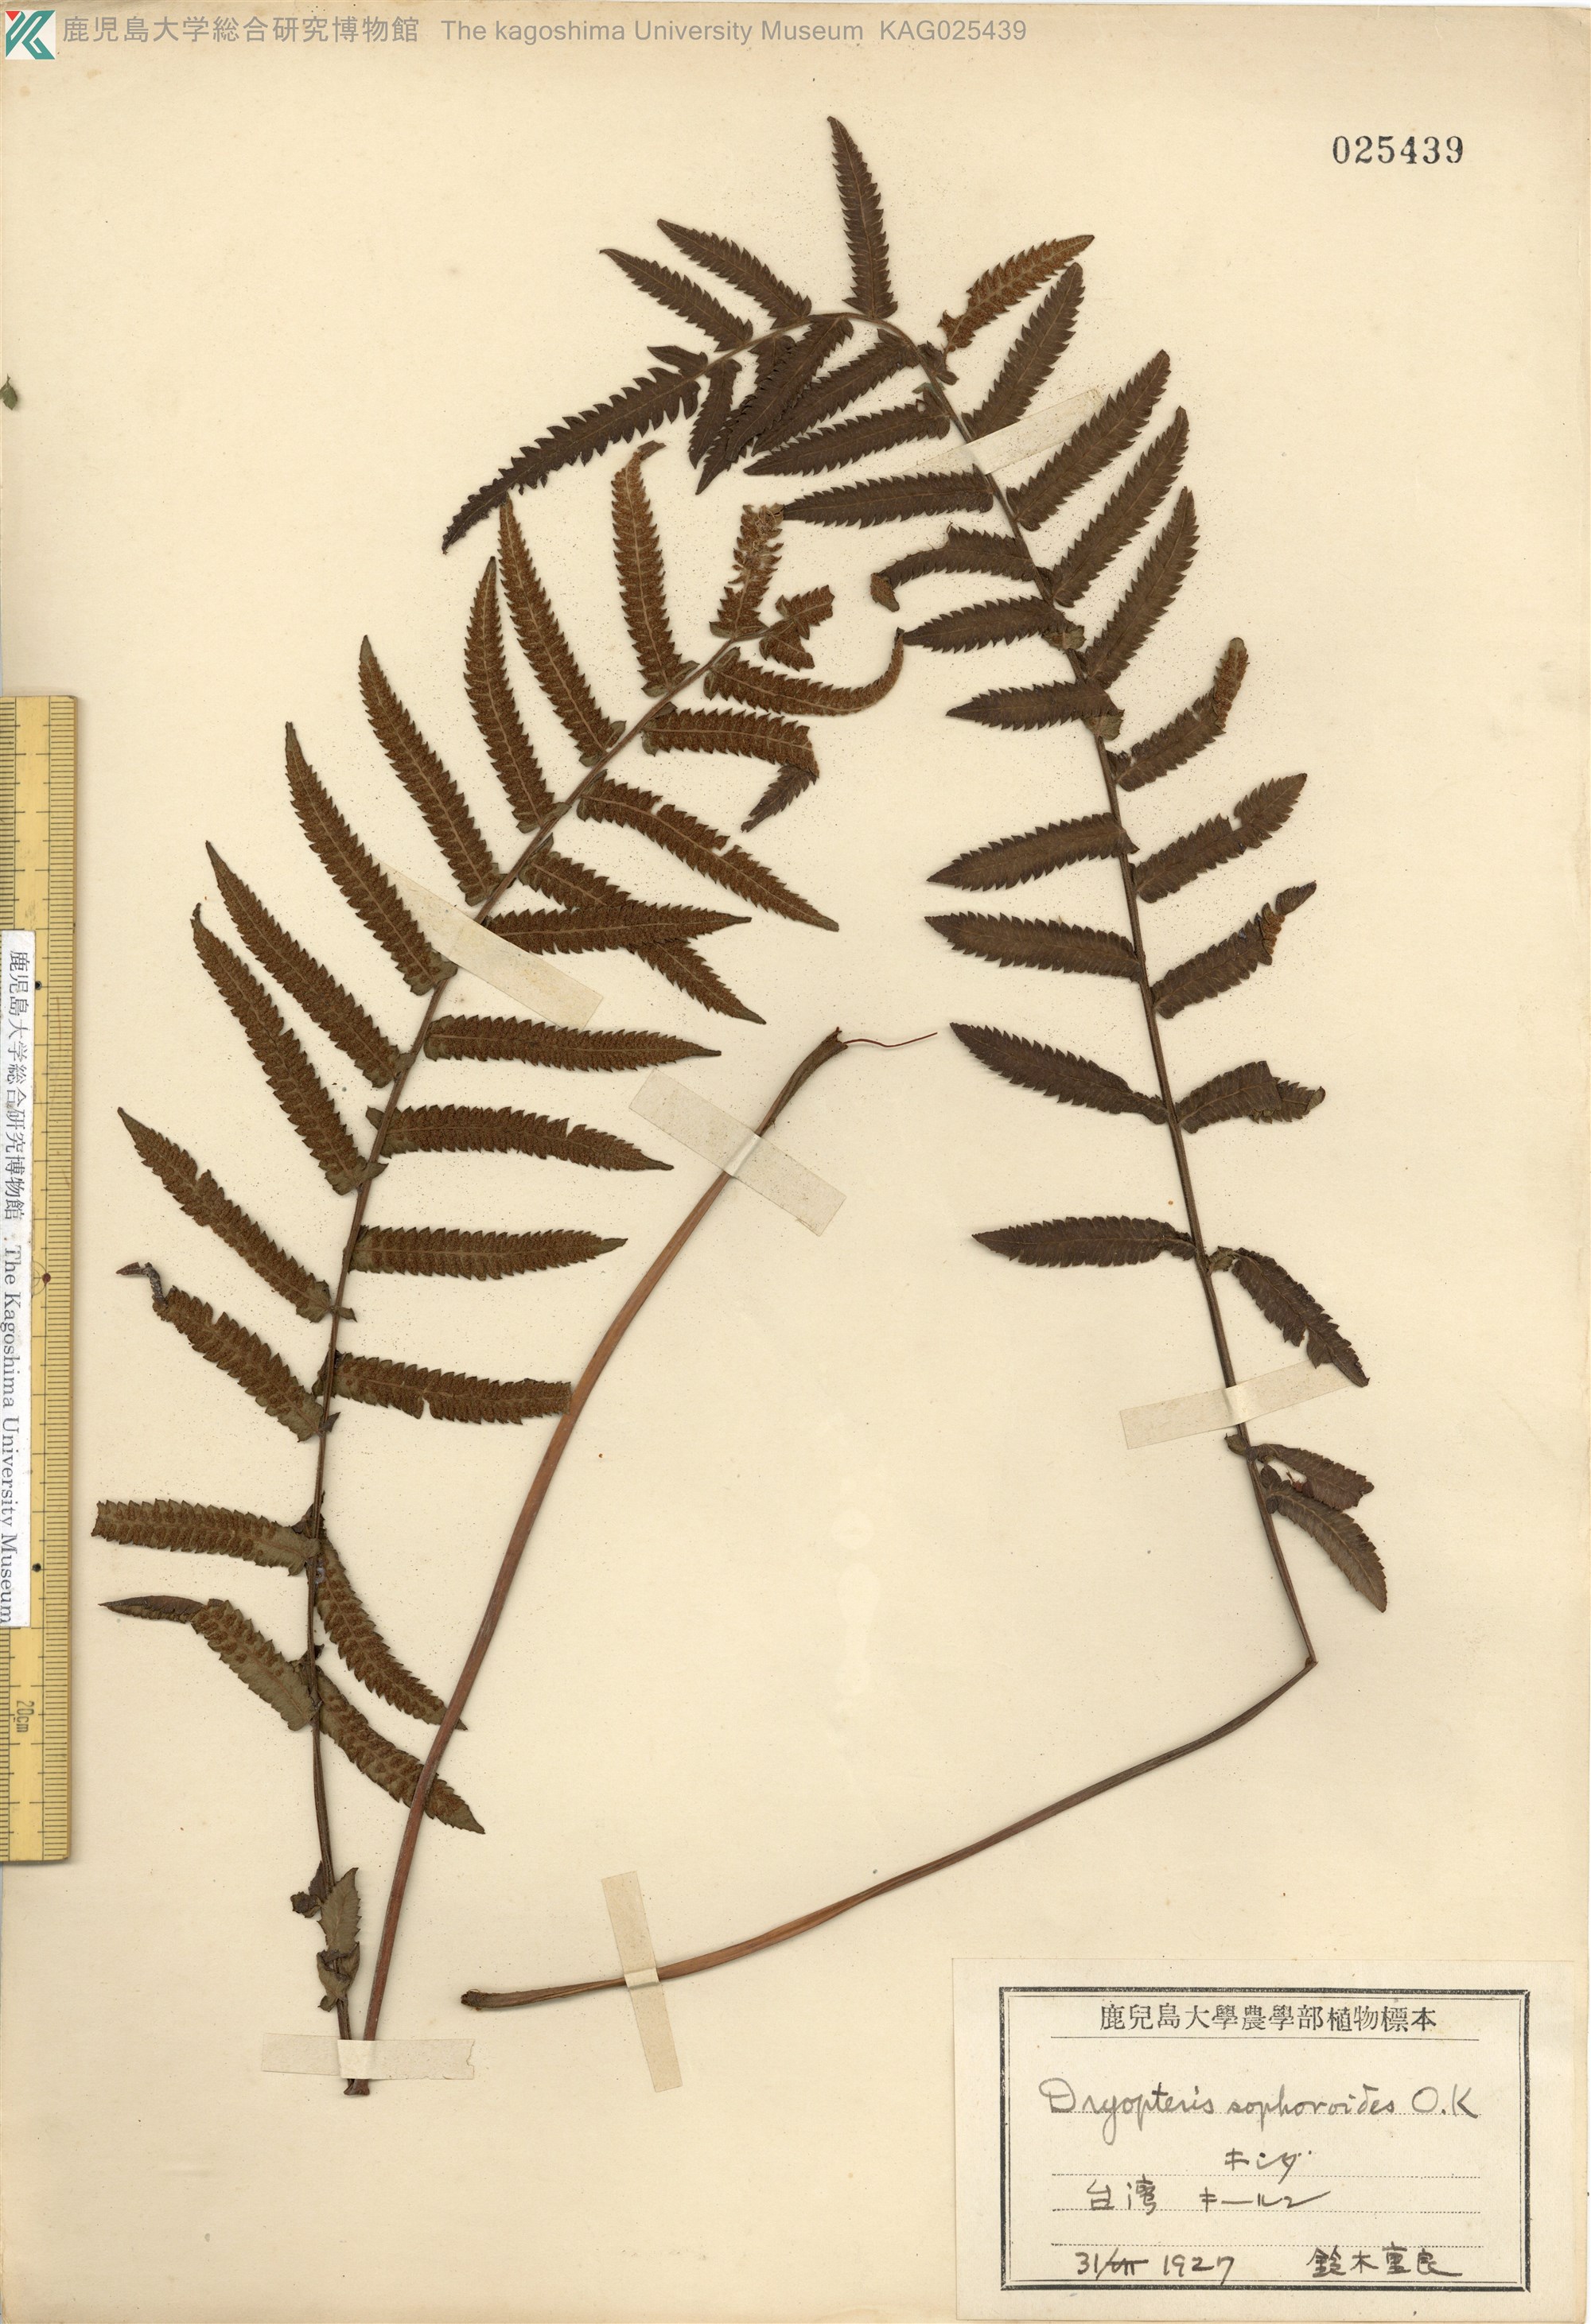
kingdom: Plantae
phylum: Tracheophyta
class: Polypodiopsida
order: Polypodiales
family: Thelypteridaceae
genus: Christella
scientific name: Christella acuminata
